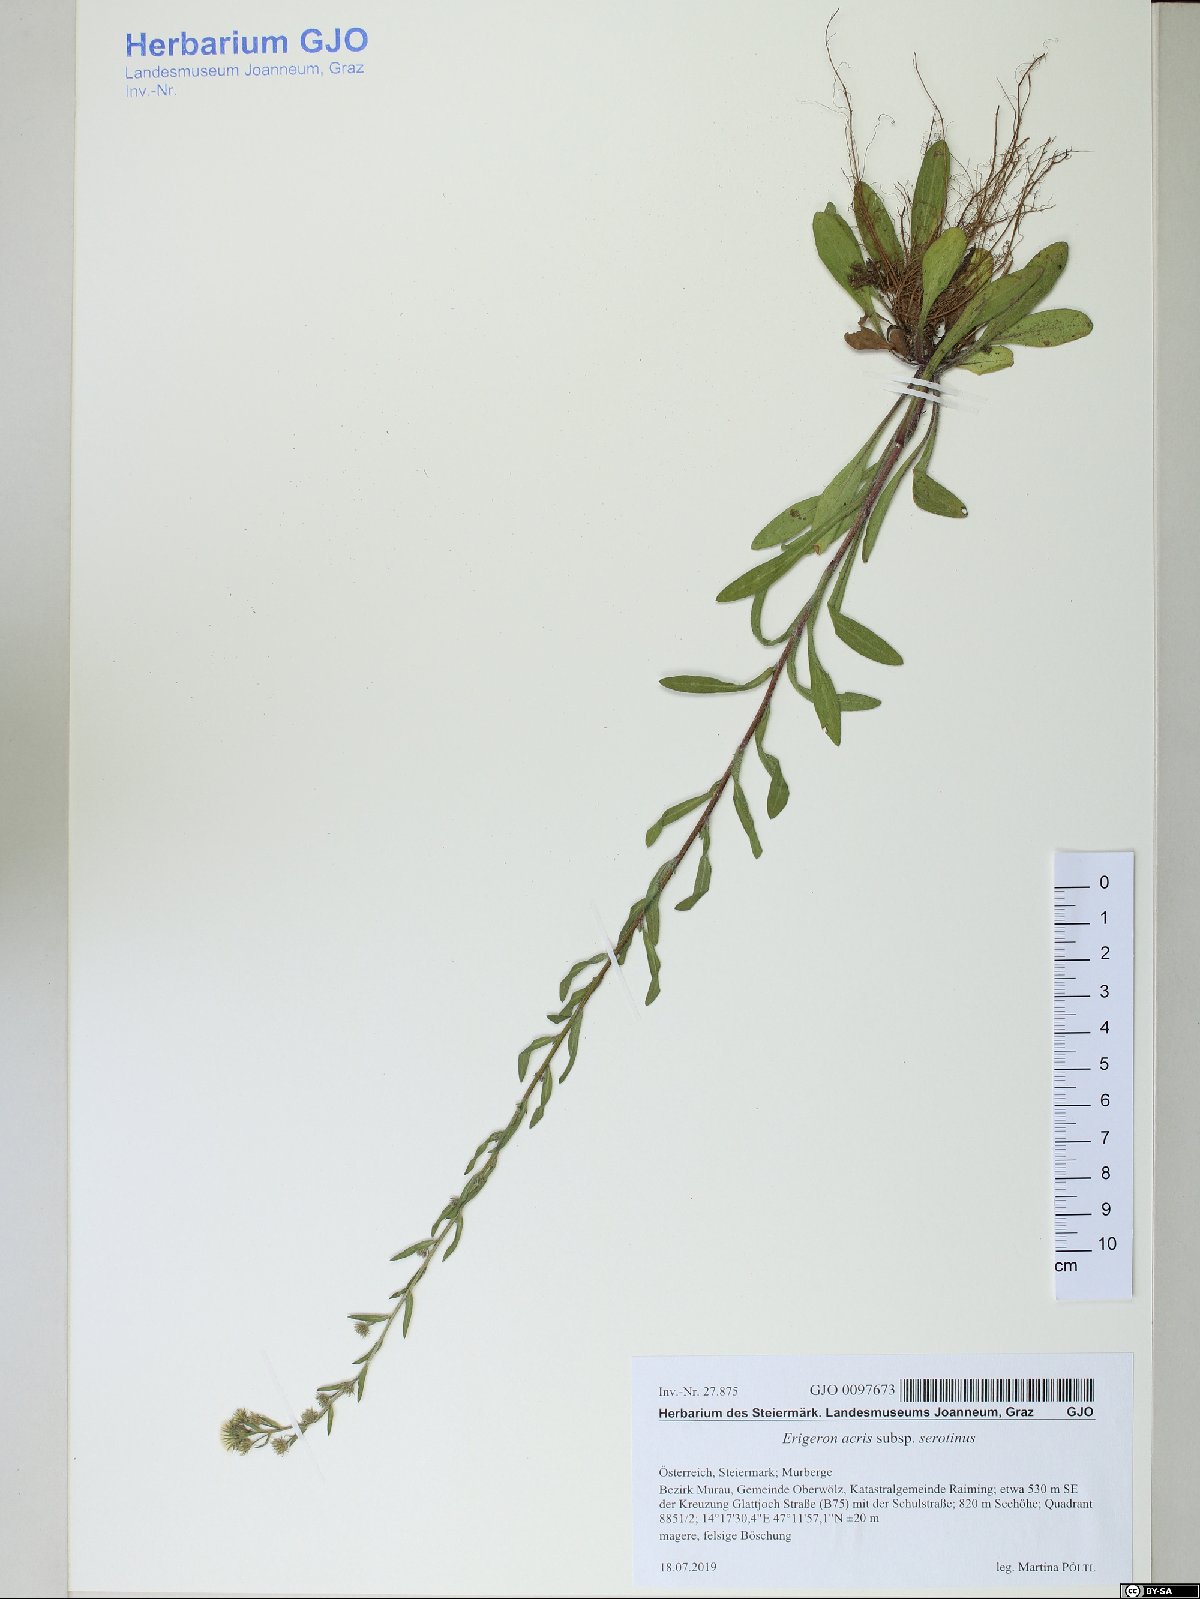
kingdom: Plantae
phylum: Tracheophyta
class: Magnoliopsida
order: Asterales
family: Asteraceae
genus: Erigeron
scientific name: Erigeron muralis
